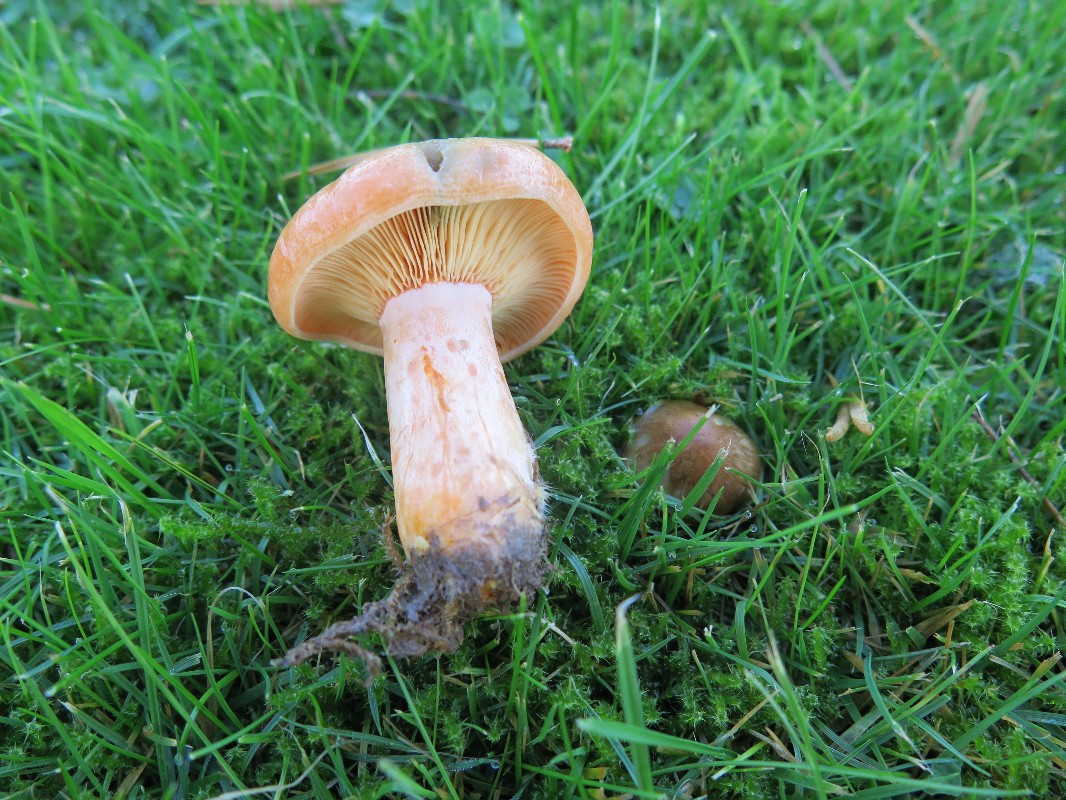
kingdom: Fungi
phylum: Basidiomycota
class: Agaricomycetes
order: Russulales
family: Russulaceae
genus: Lactarius
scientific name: Lactarius deliciosus
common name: velsmagende mælkehat
